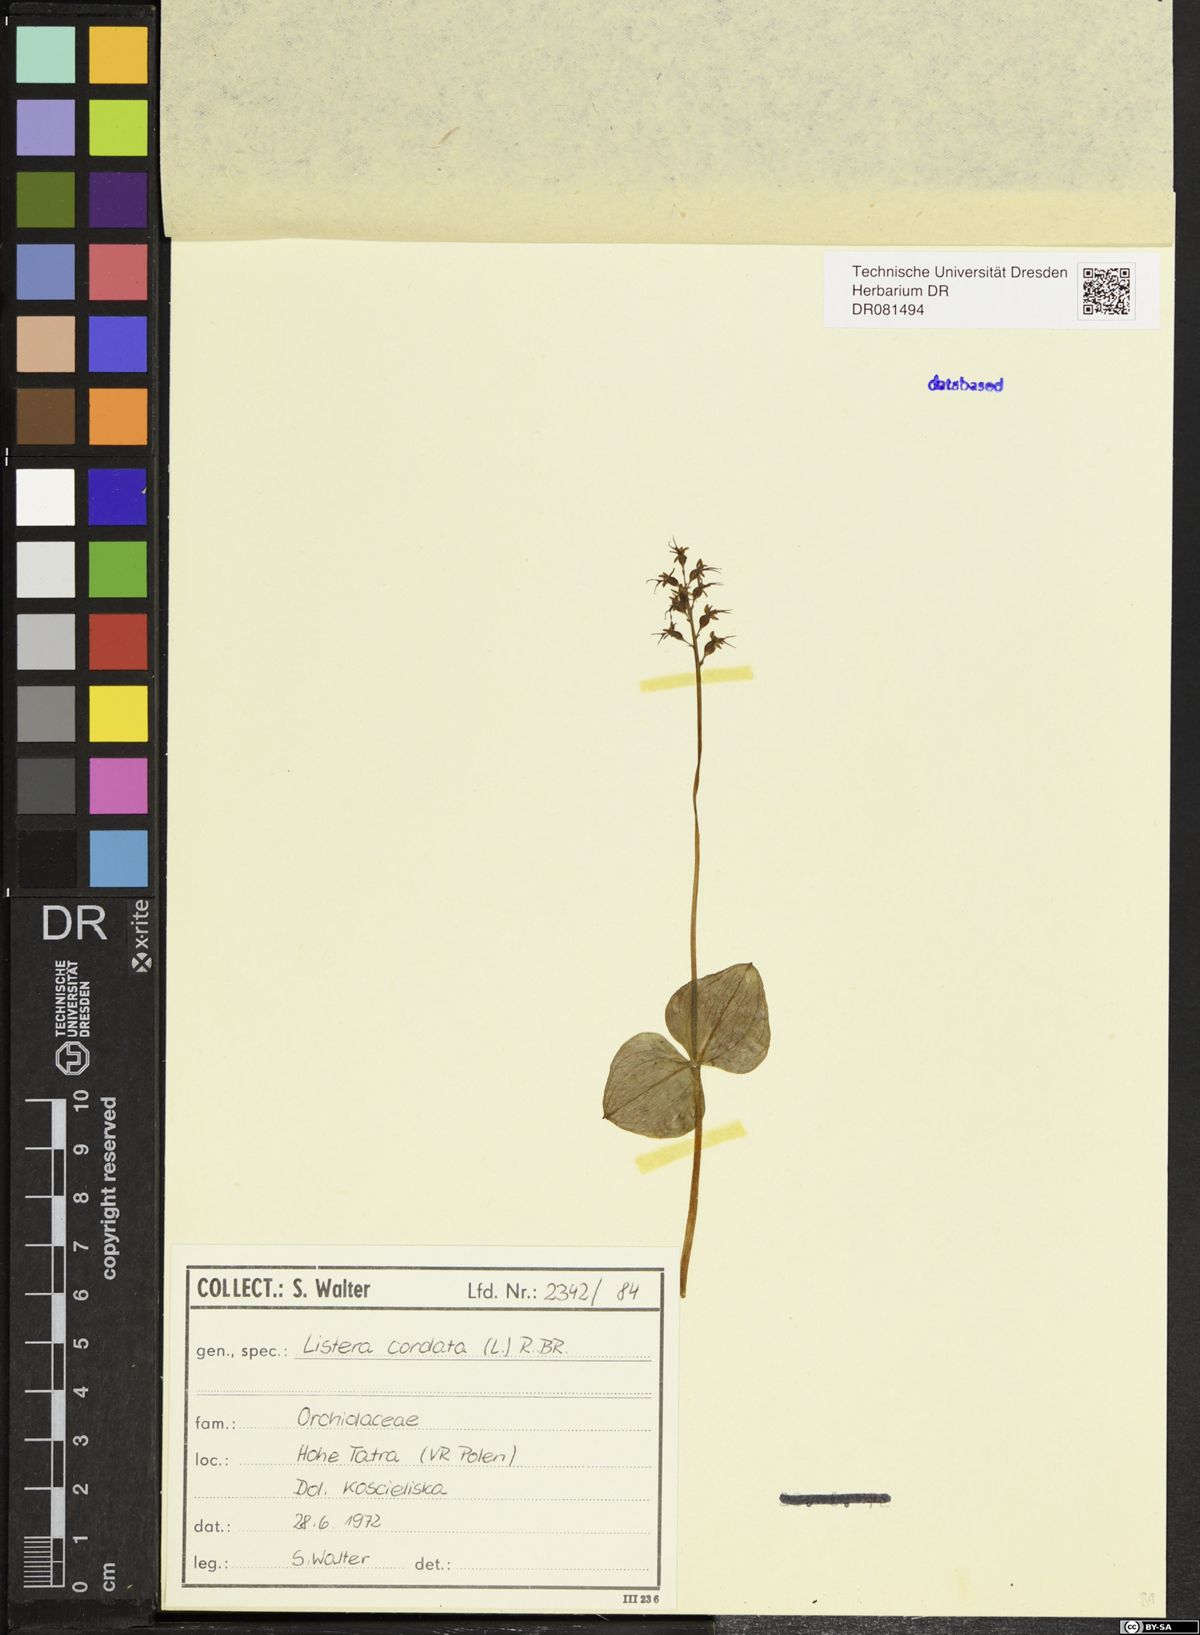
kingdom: Plantae
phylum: Tracheophyta
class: Liliopsida
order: Asparagales
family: Orchidaceae
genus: Neottia
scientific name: Neottia cordata
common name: Lesser twayblade
